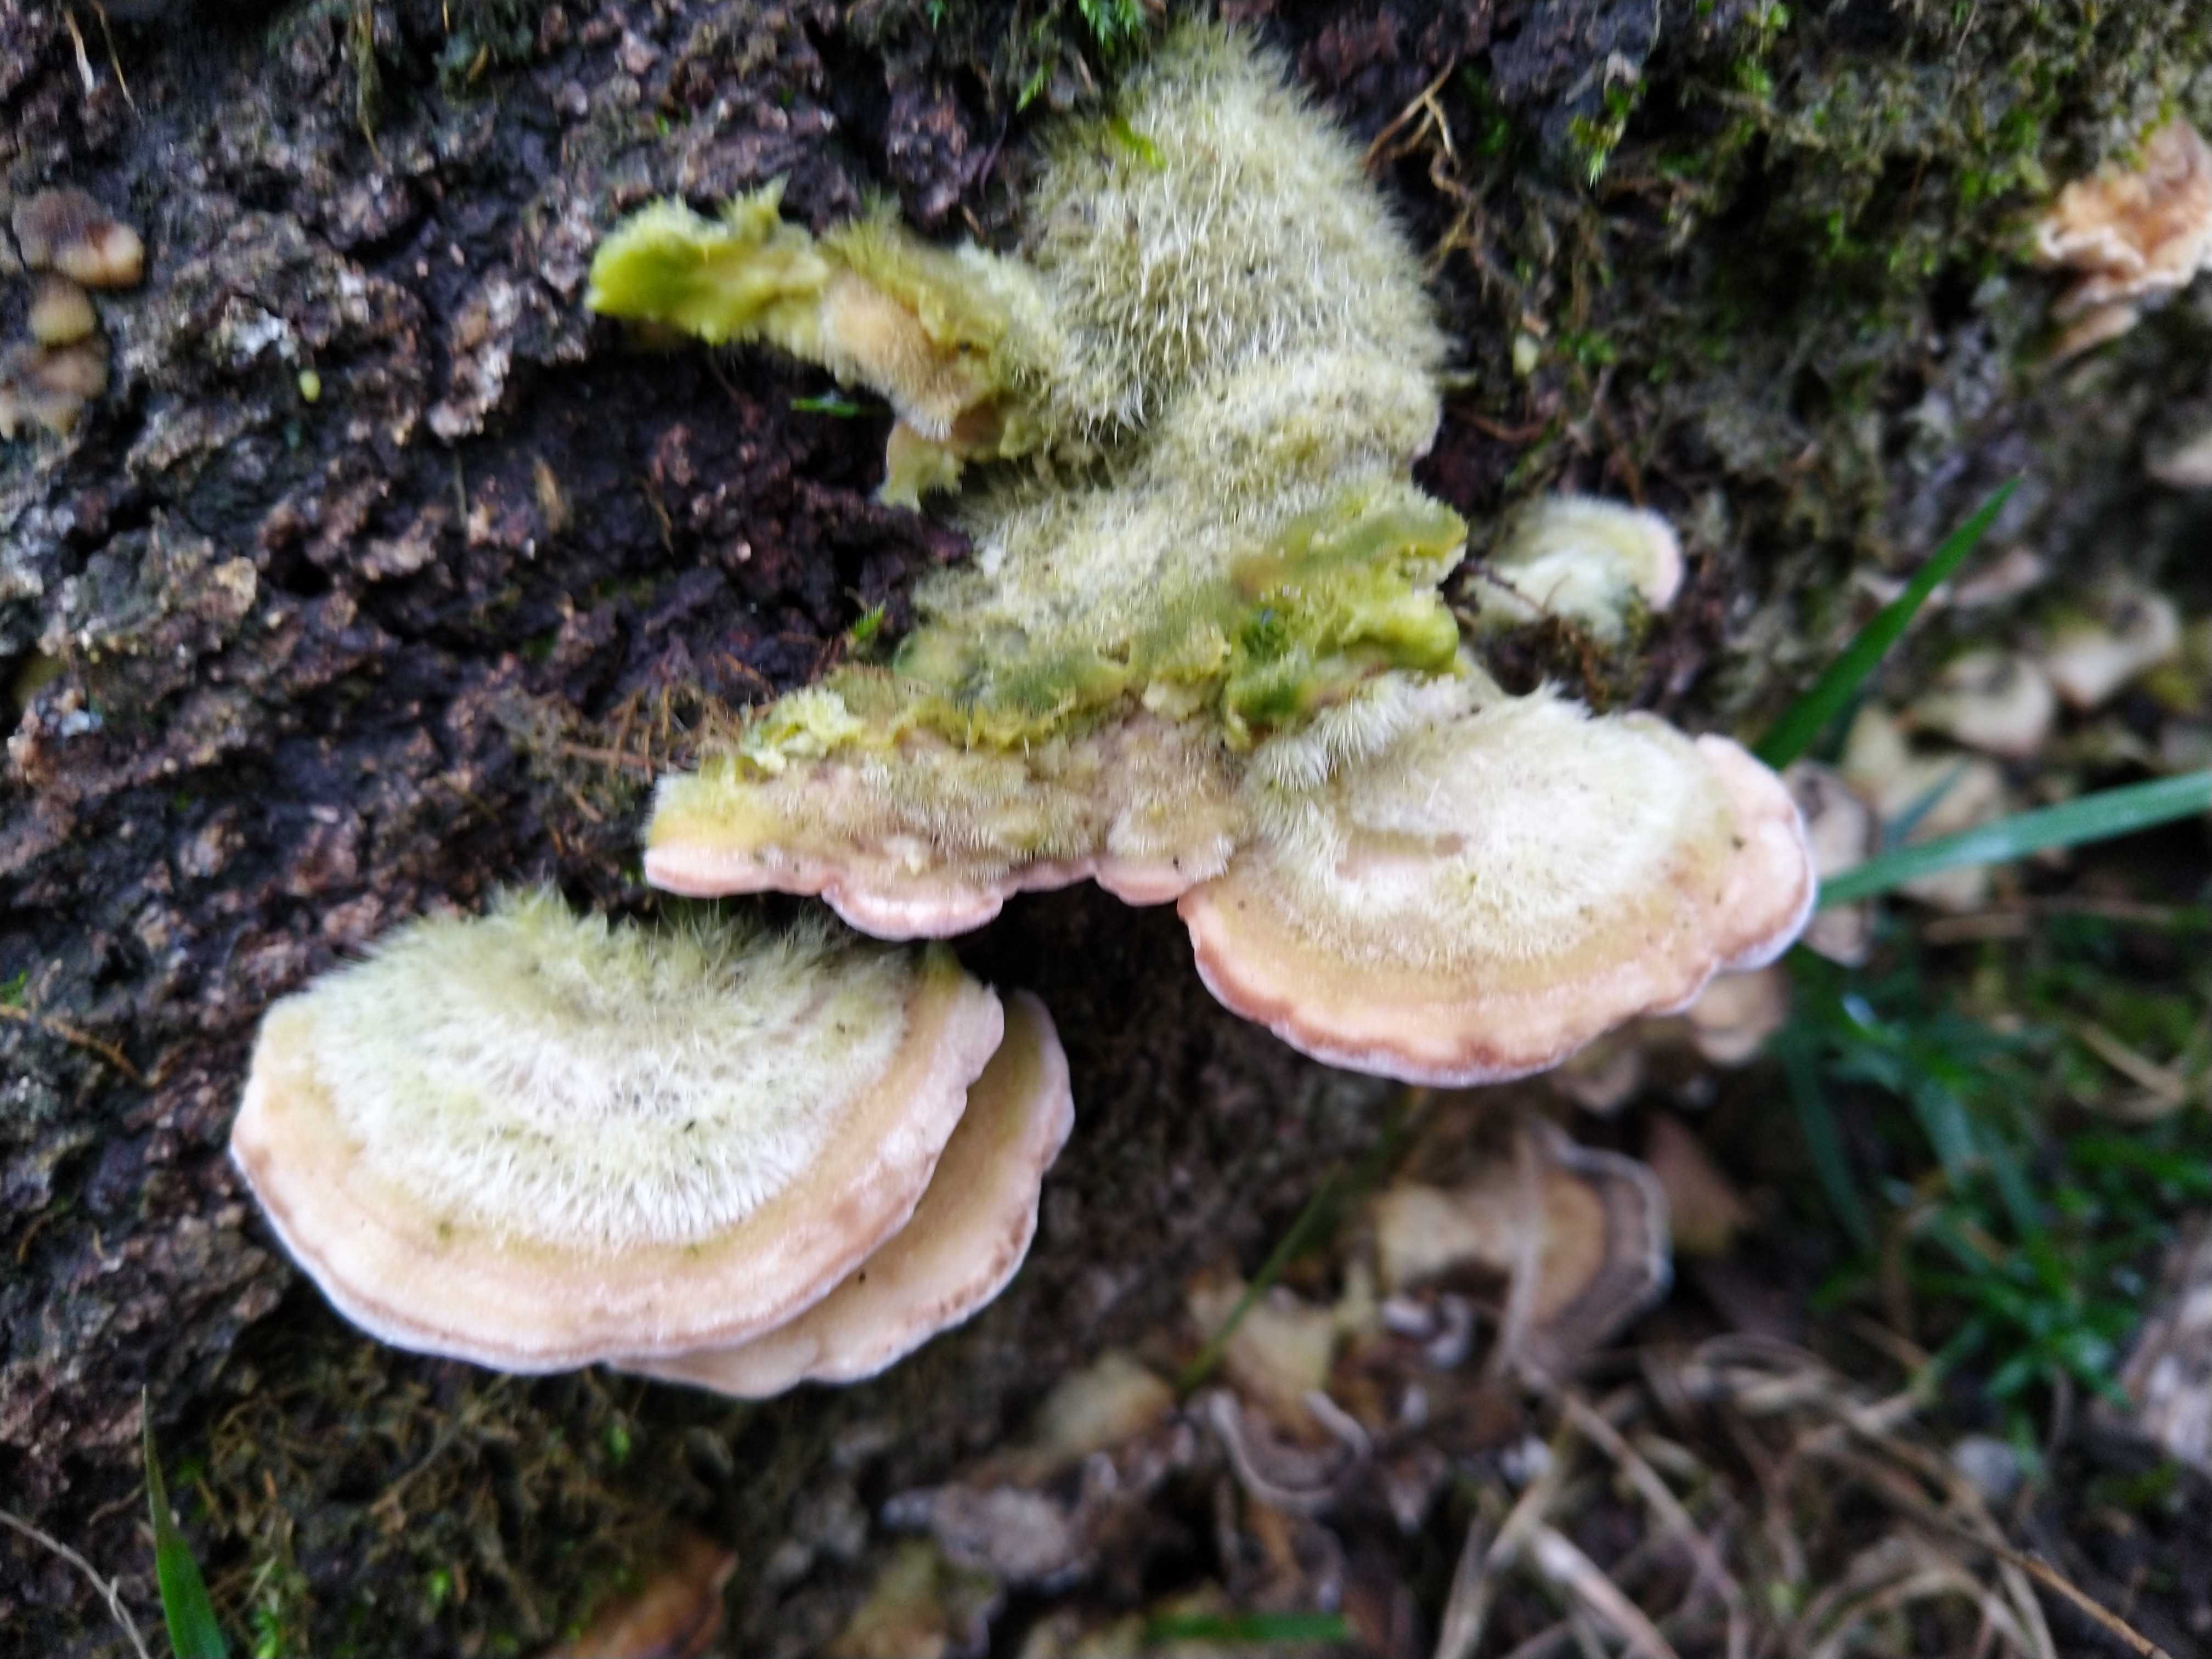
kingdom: Fungi
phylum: Basidiomycota
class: Agaricomycetes
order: Polyporales
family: Polyporaceae
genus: Trametes
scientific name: Trametes hirsuta
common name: håret læderporesvamp
